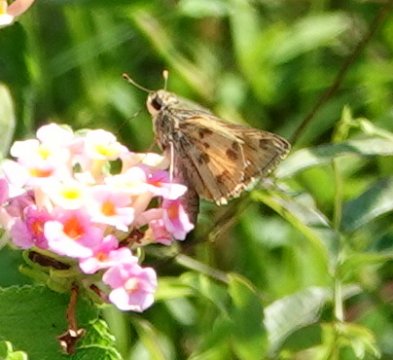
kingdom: Animalia
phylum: Arthropoda
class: Insecta
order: Lepidoptera
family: Hesperiidae
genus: Polites
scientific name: Polites vibex
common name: Whirlabout
